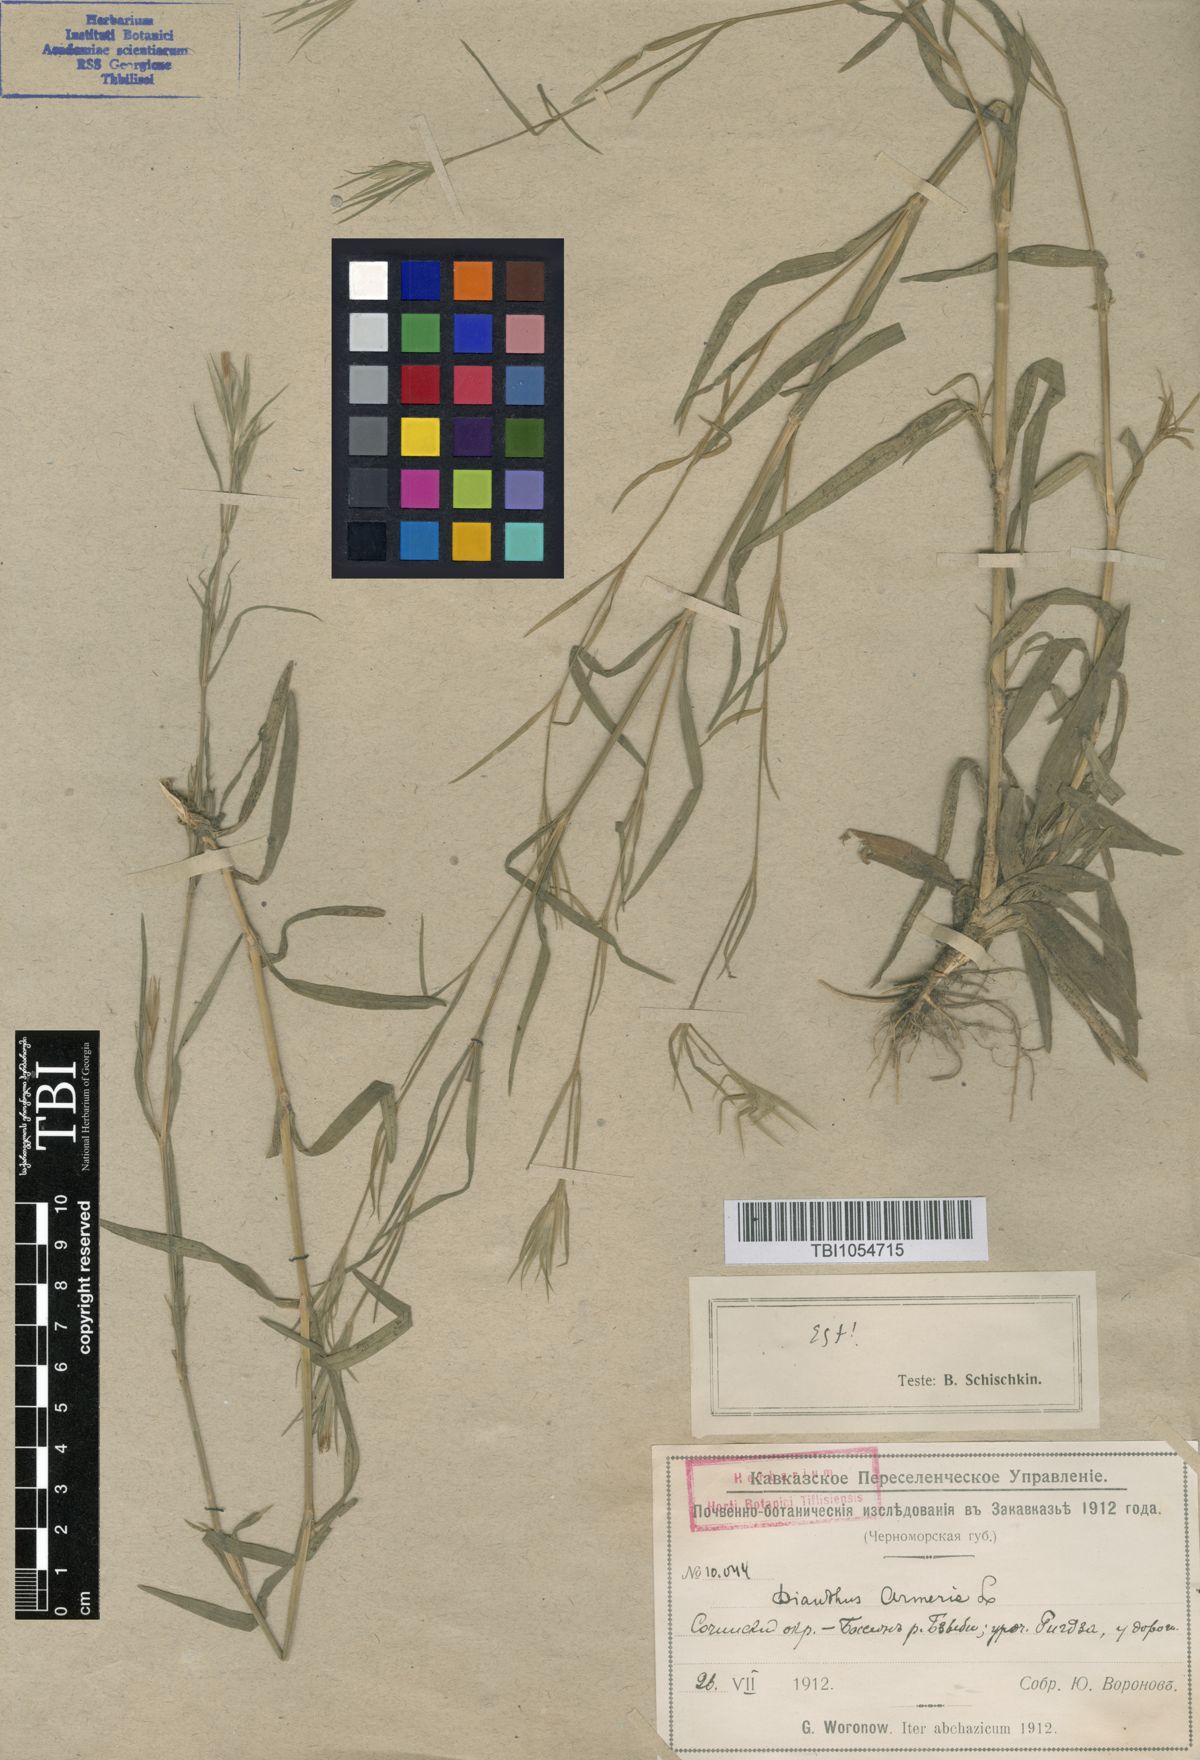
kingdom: Plantae
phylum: Tracheophyta
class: Magnoliopsida
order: Caryophyllales
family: Caryophyllaceae
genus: Dianthus
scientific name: Dianthus armeria
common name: Deptford pink
